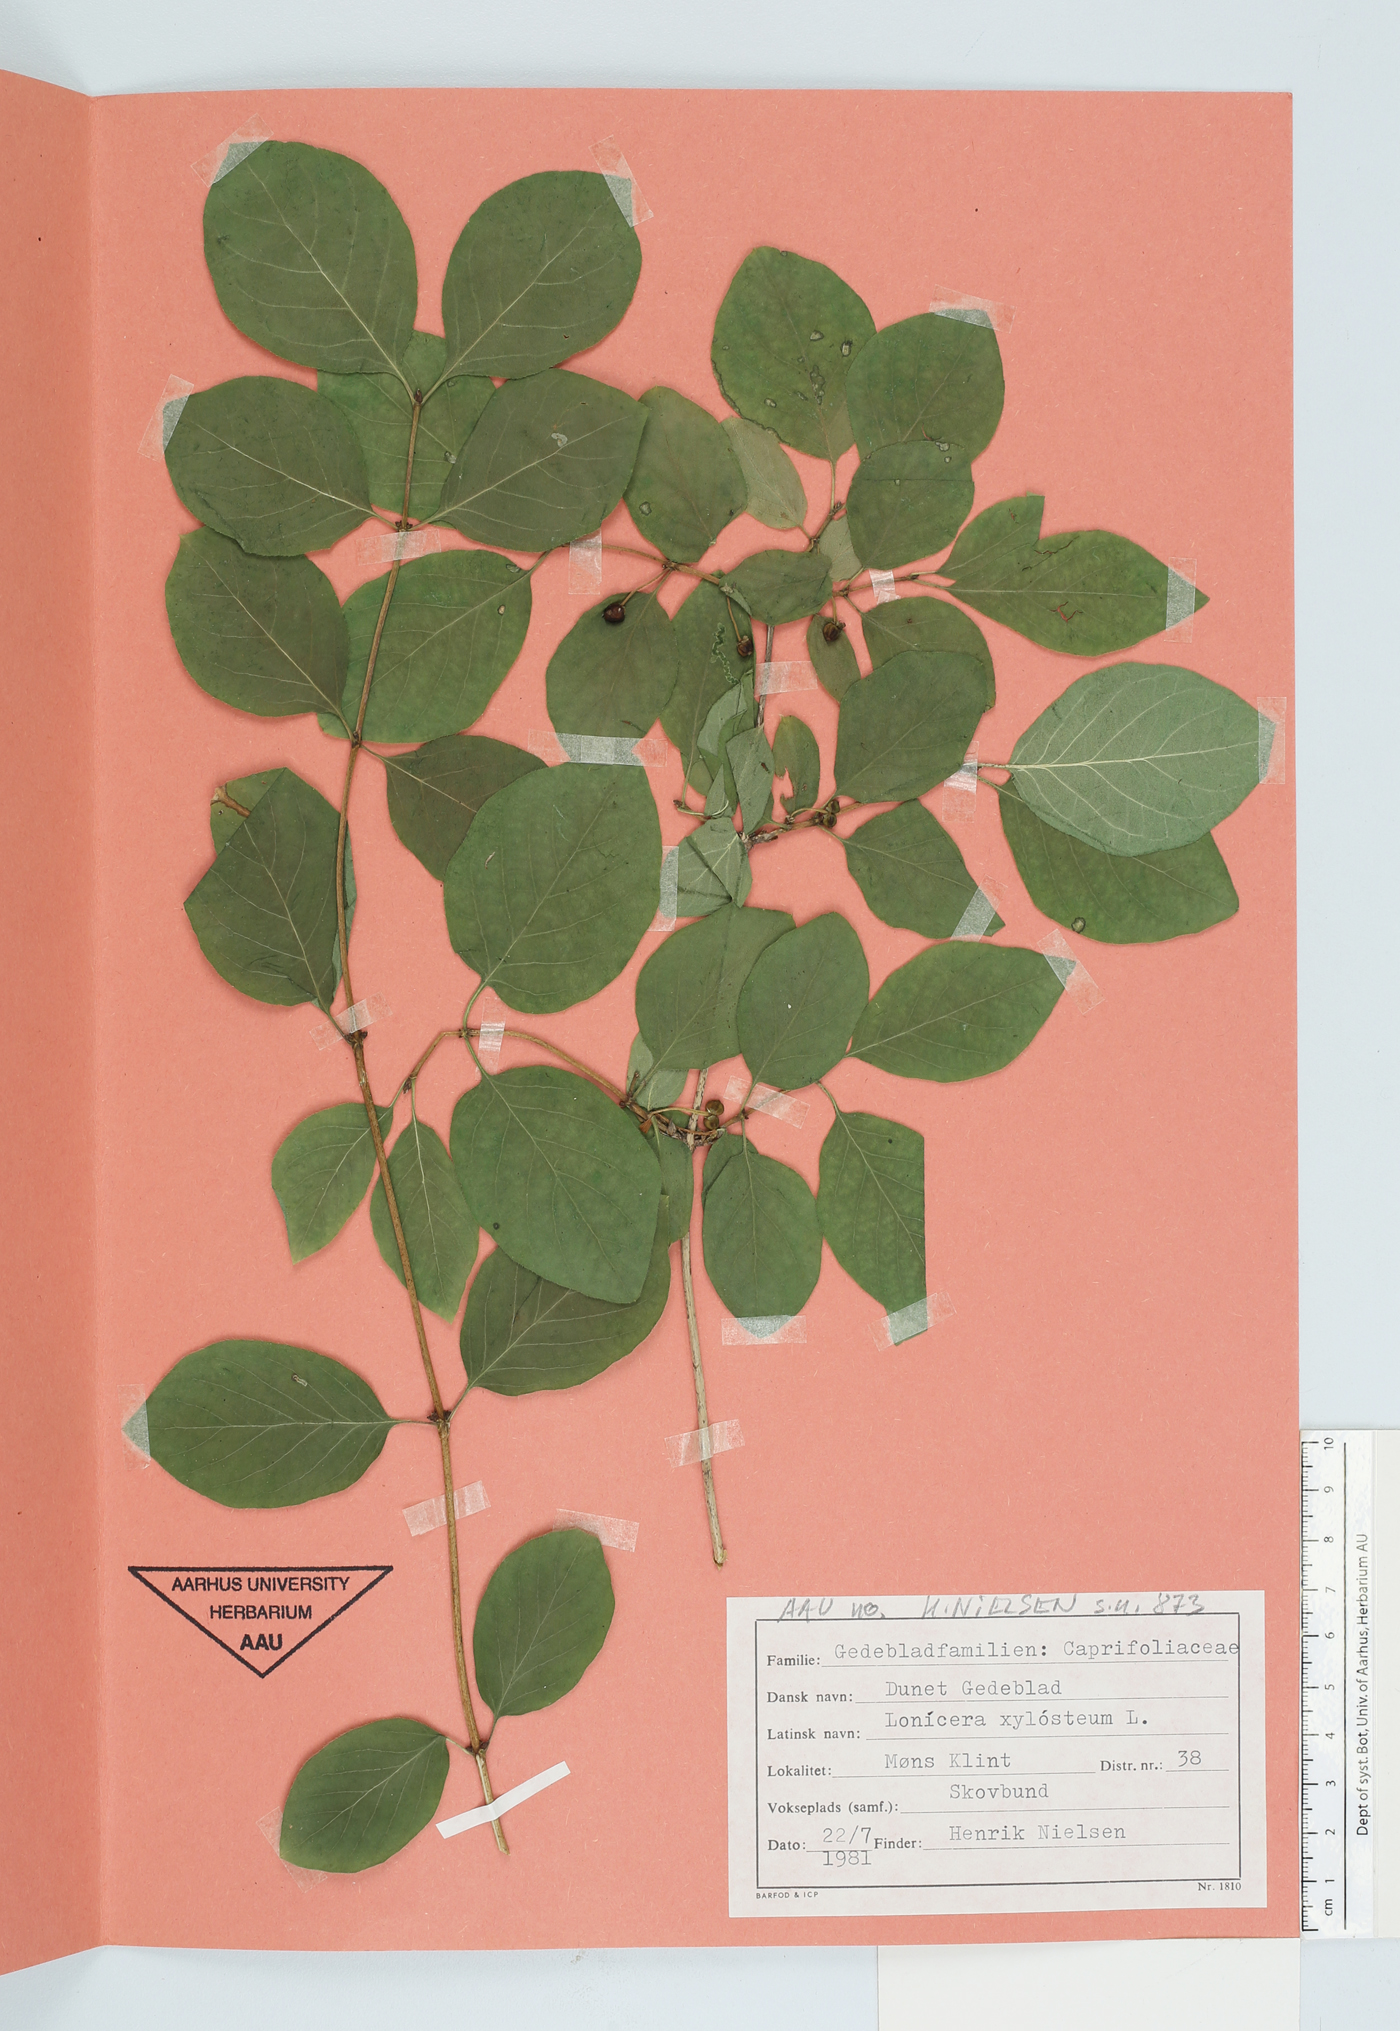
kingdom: Plantae
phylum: Tracheophyta
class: Magnoliopsida
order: Dipsacales
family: Caprifoliaceae
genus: Lonicera
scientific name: Lonicera xylosteum
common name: Fly honeysuckle
